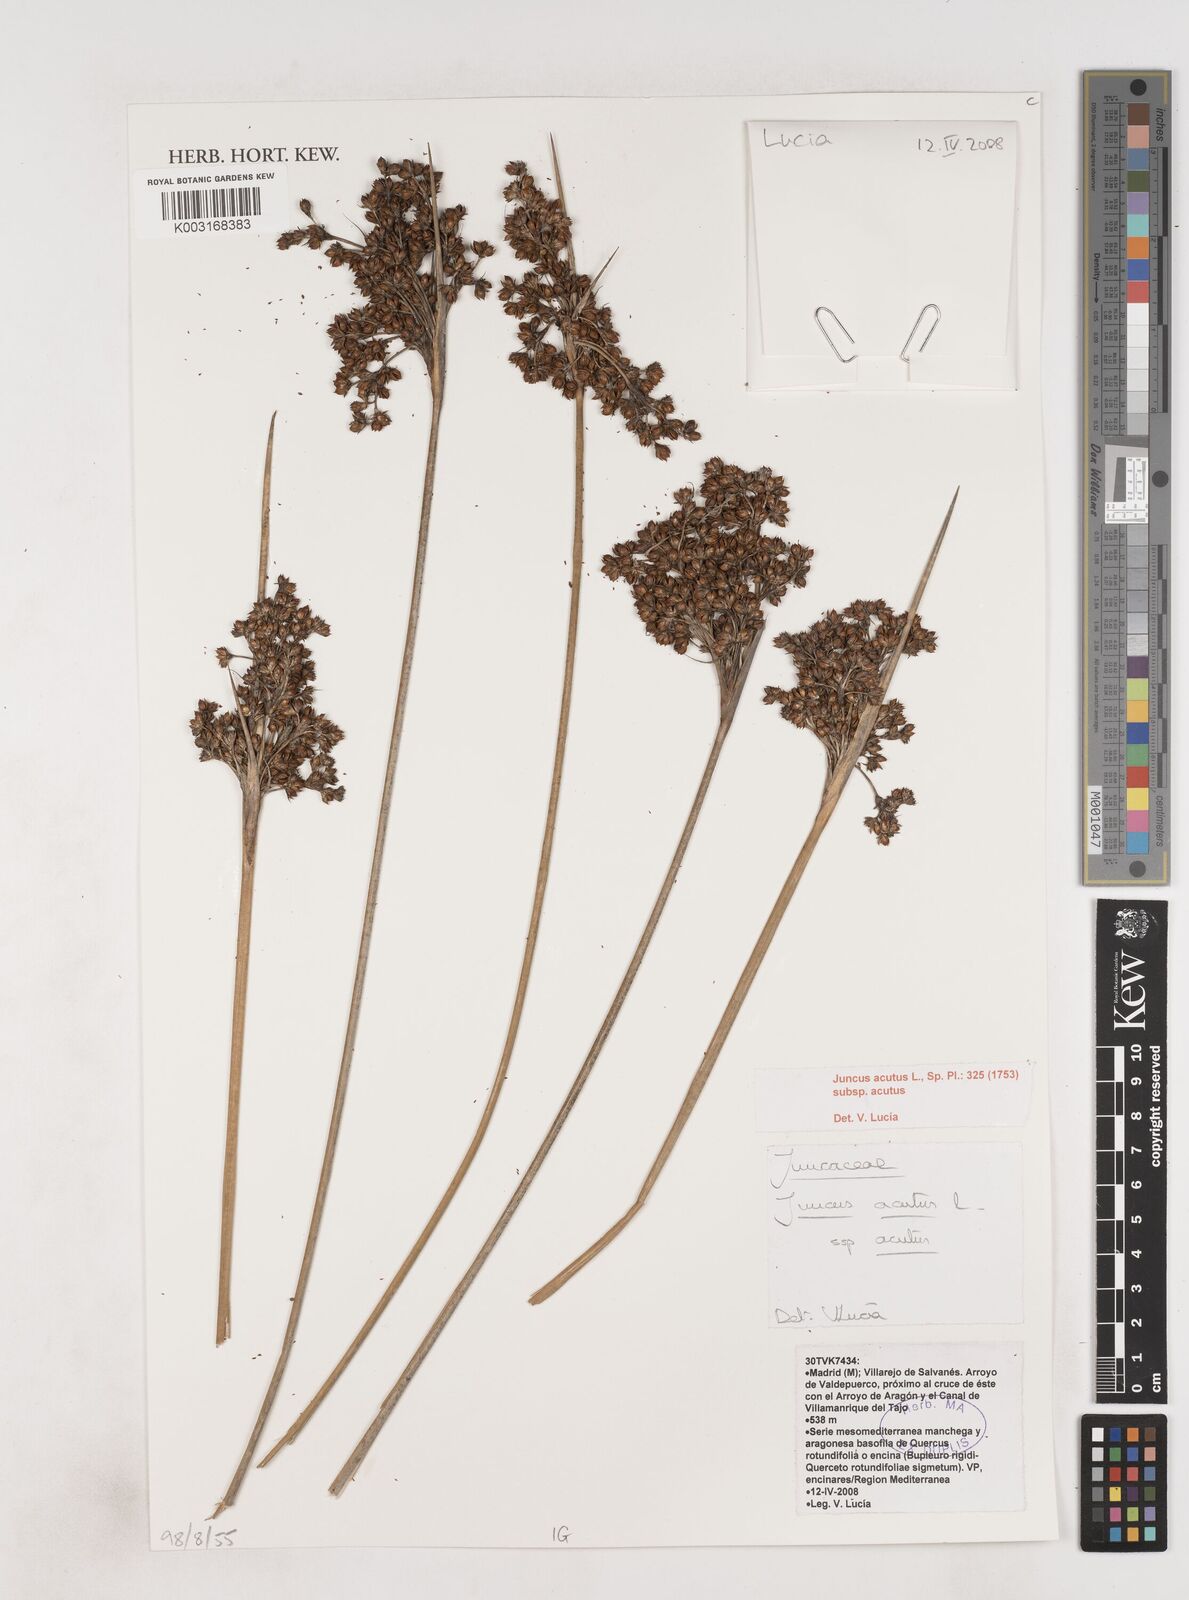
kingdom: Plantae
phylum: Tracheophyta
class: Liliopsida
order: Poales
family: Juncaceae
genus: Juncus
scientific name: Juncus acutus
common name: Sharp rush
